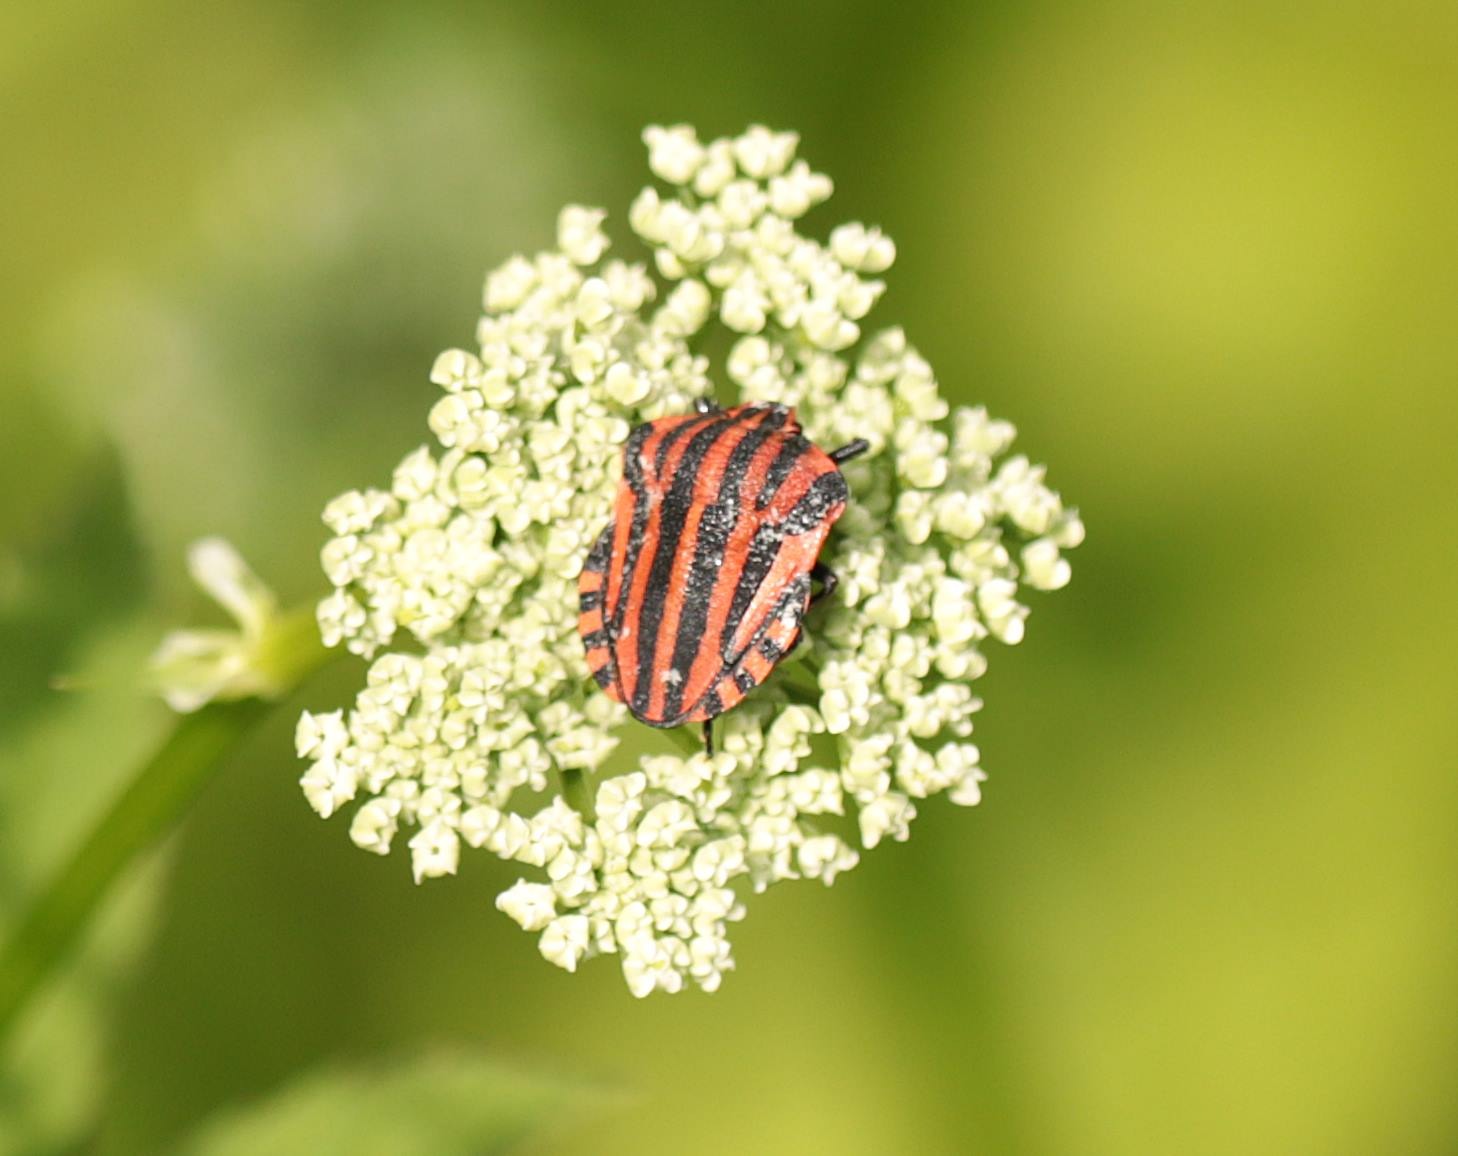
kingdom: Animalia
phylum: Arthropoda
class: Insecta
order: Hemiptera
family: Pentatomidae
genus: Graphosoma
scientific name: Graphosoma italicum
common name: Stribetæge
